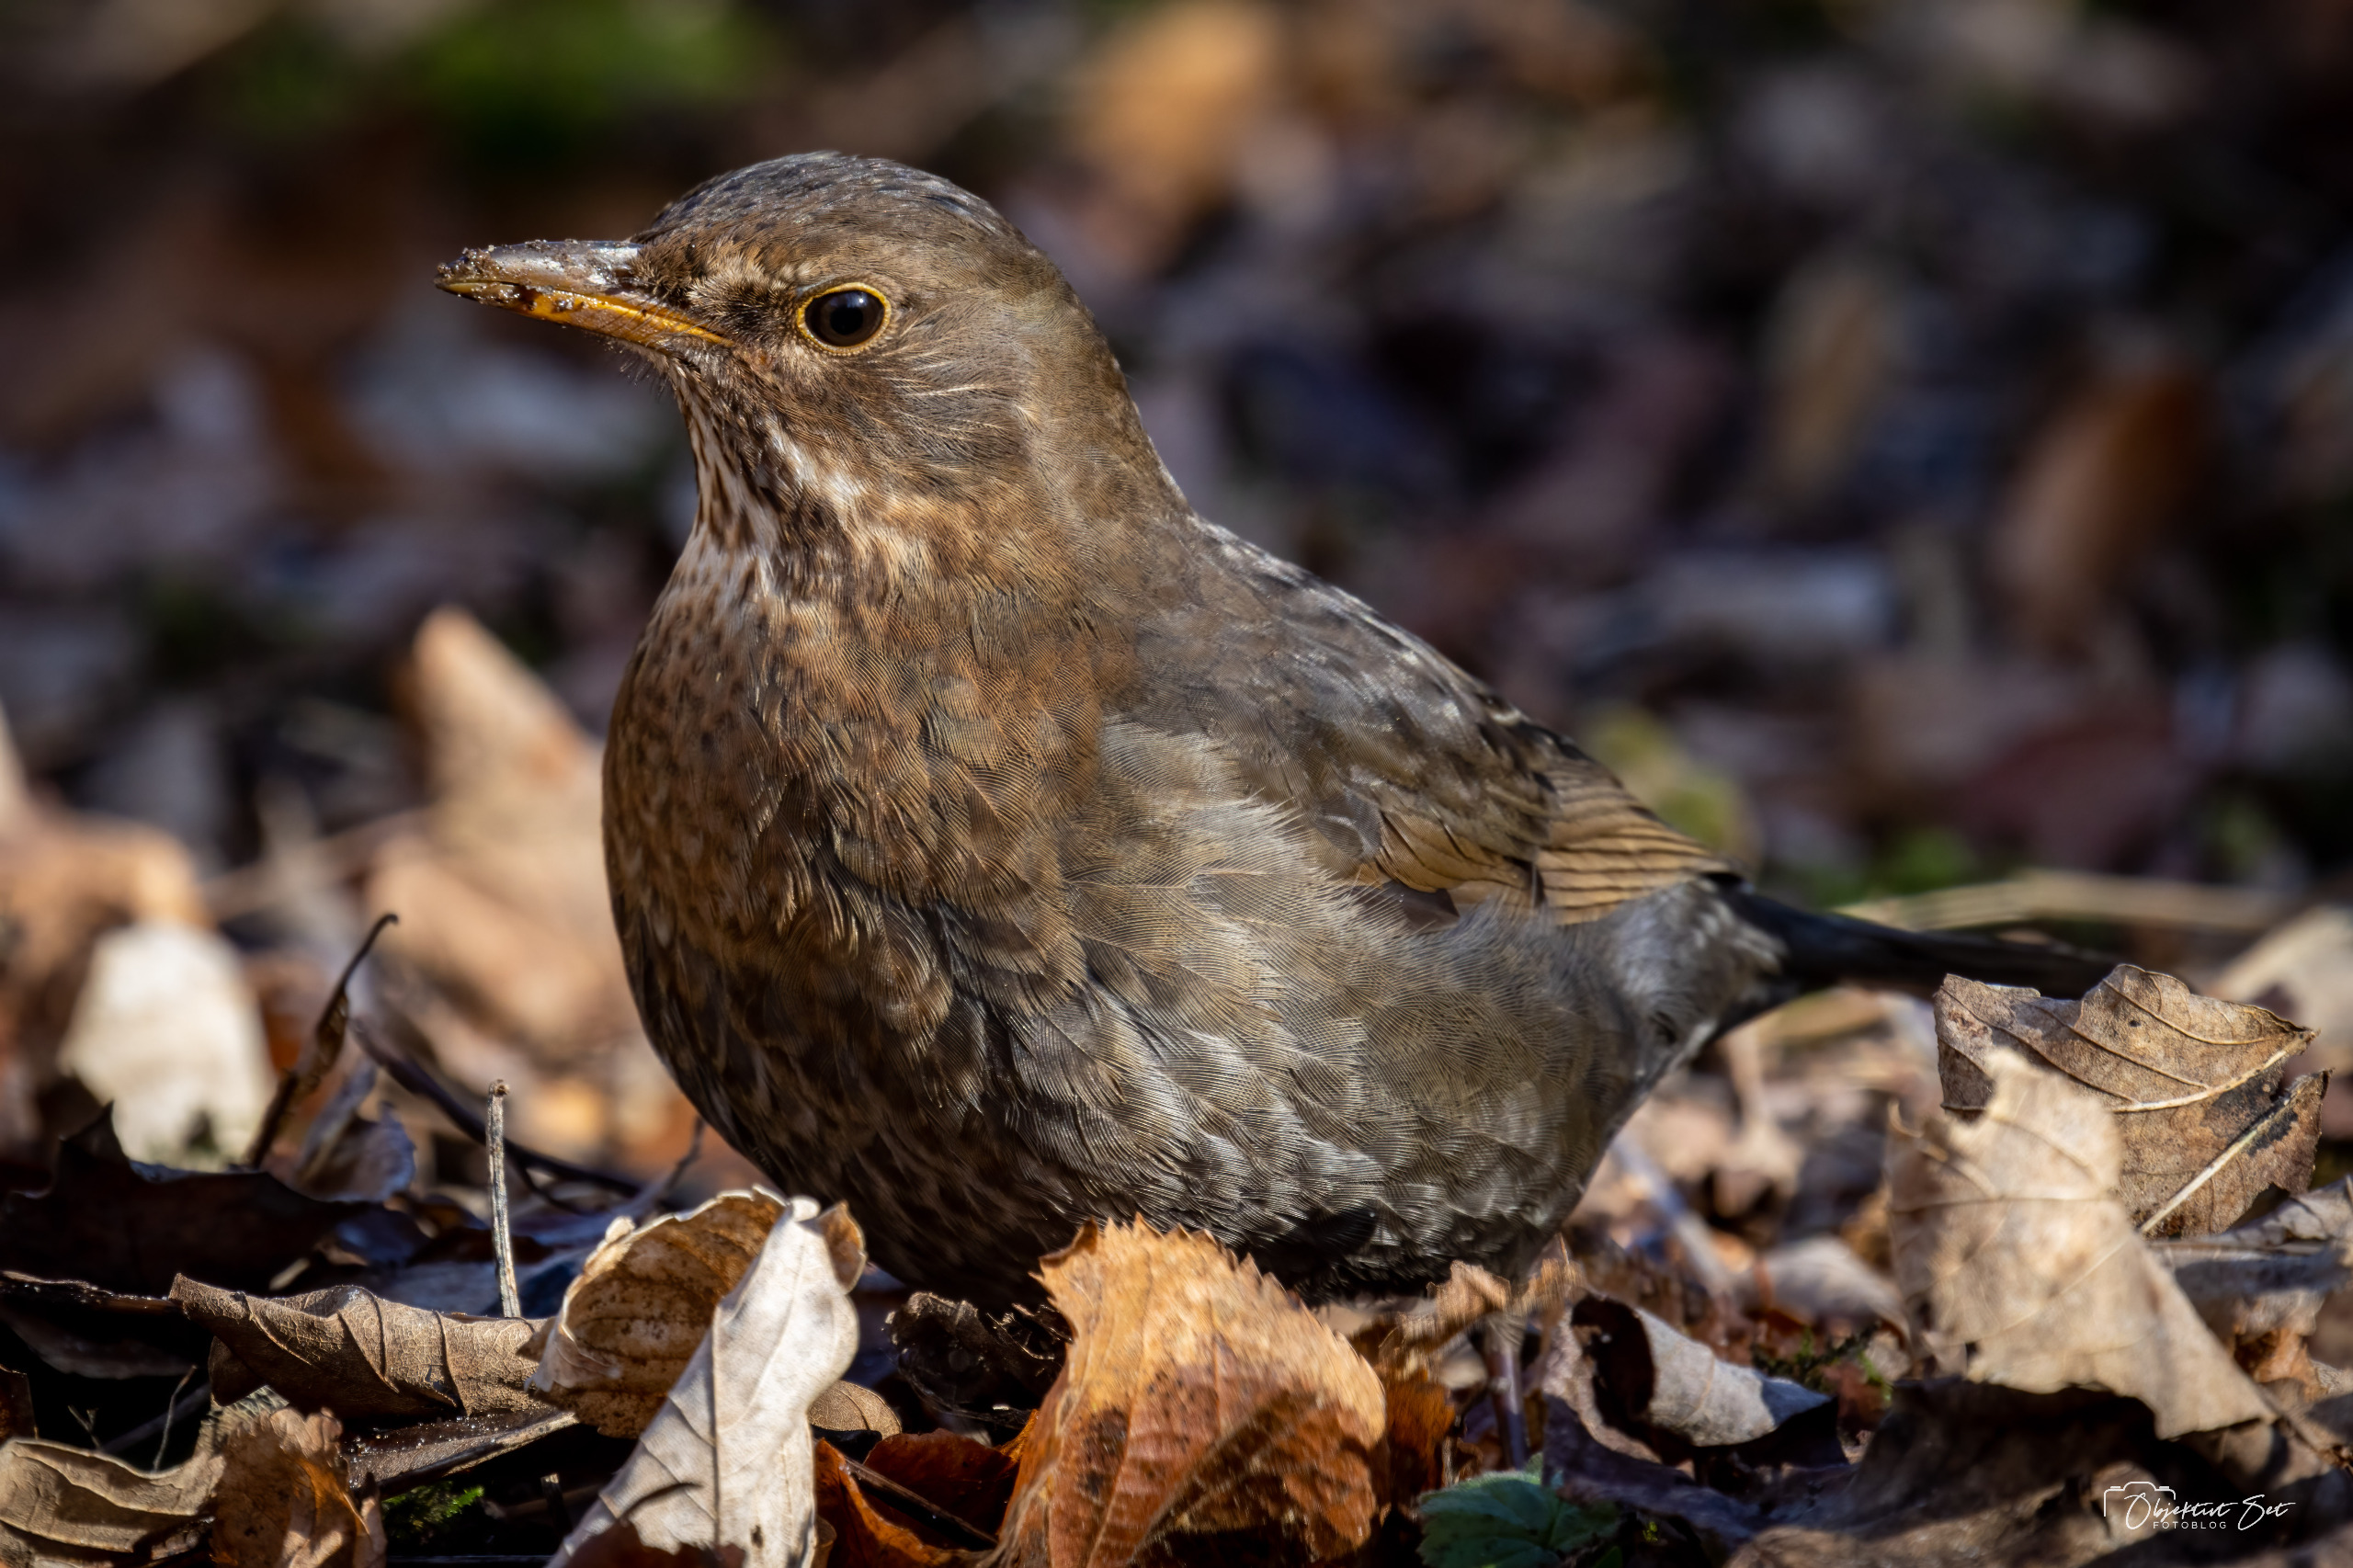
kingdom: Animalia
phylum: Chordata
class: Aves
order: Passeriformes
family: Turdidae
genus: Turdus
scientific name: Turdus merula
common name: Solsort
